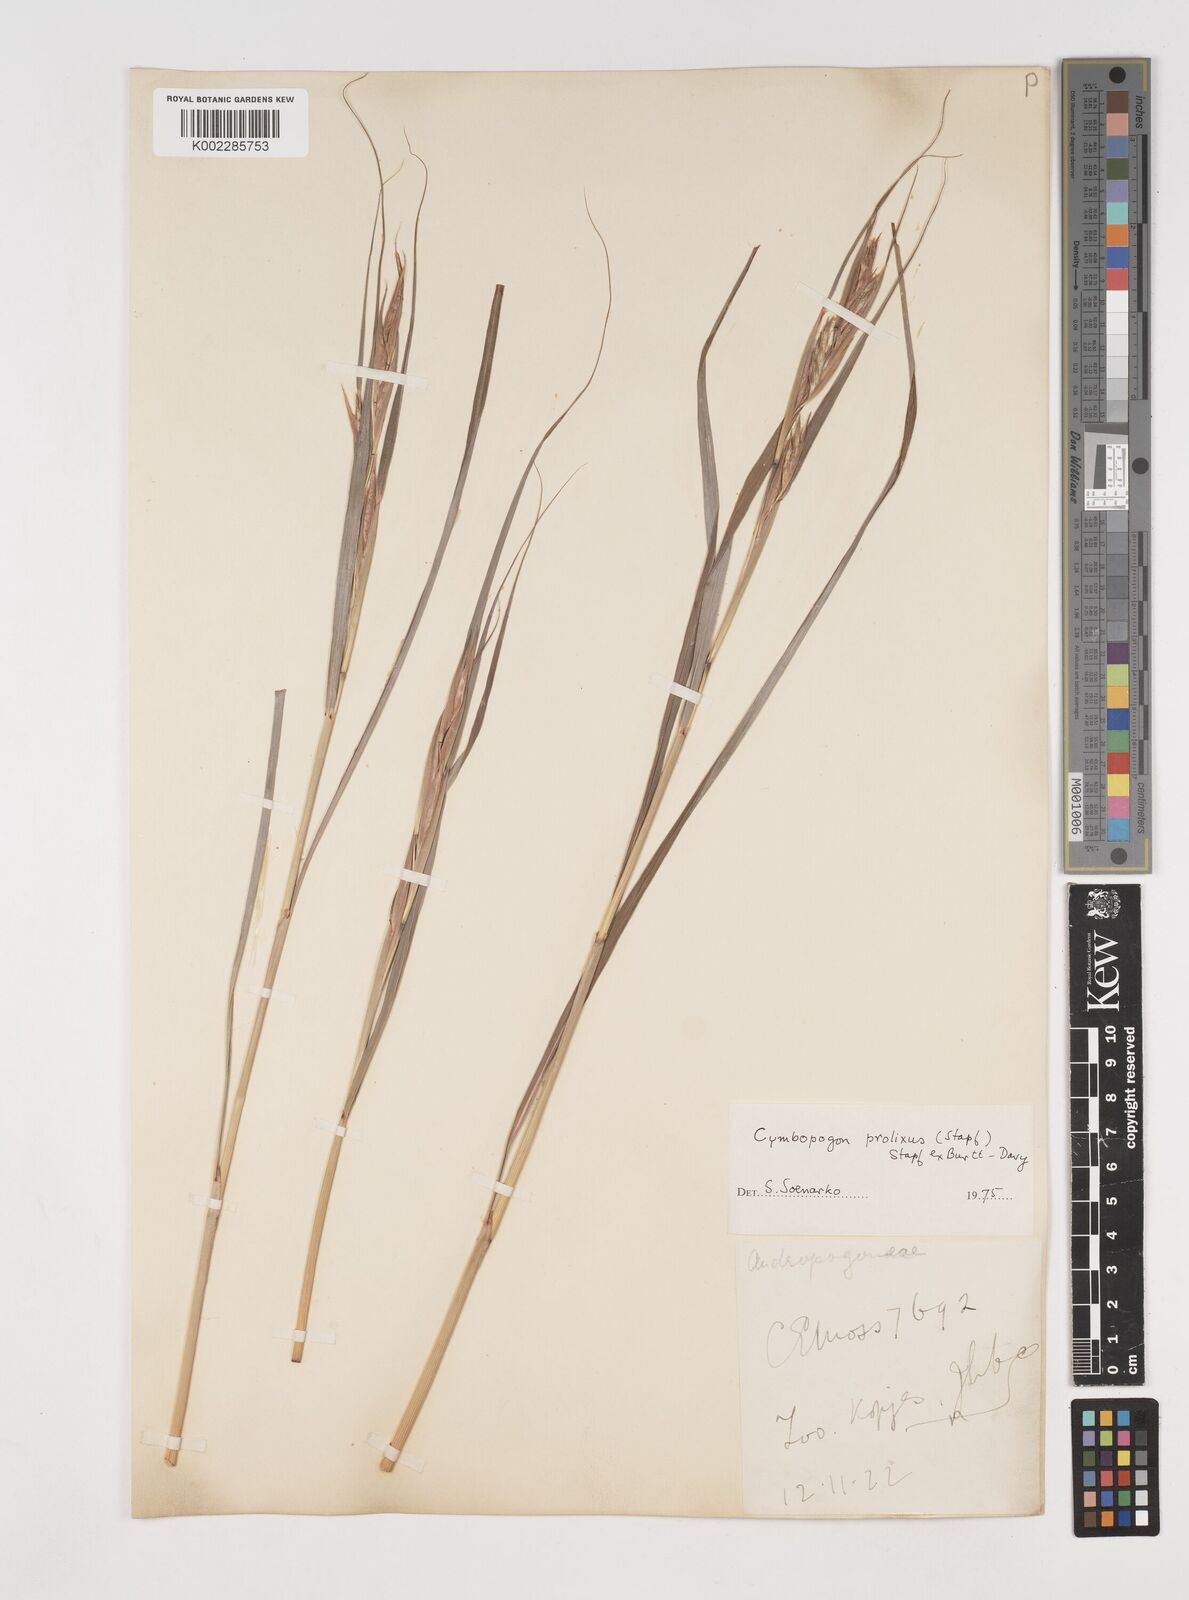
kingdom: Plantae
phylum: Tracheophyta
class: Liliopsida
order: Poales
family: Poaceae
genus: Cymbopogon
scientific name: Cymbopogon nardus
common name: Giant turpentine grass
